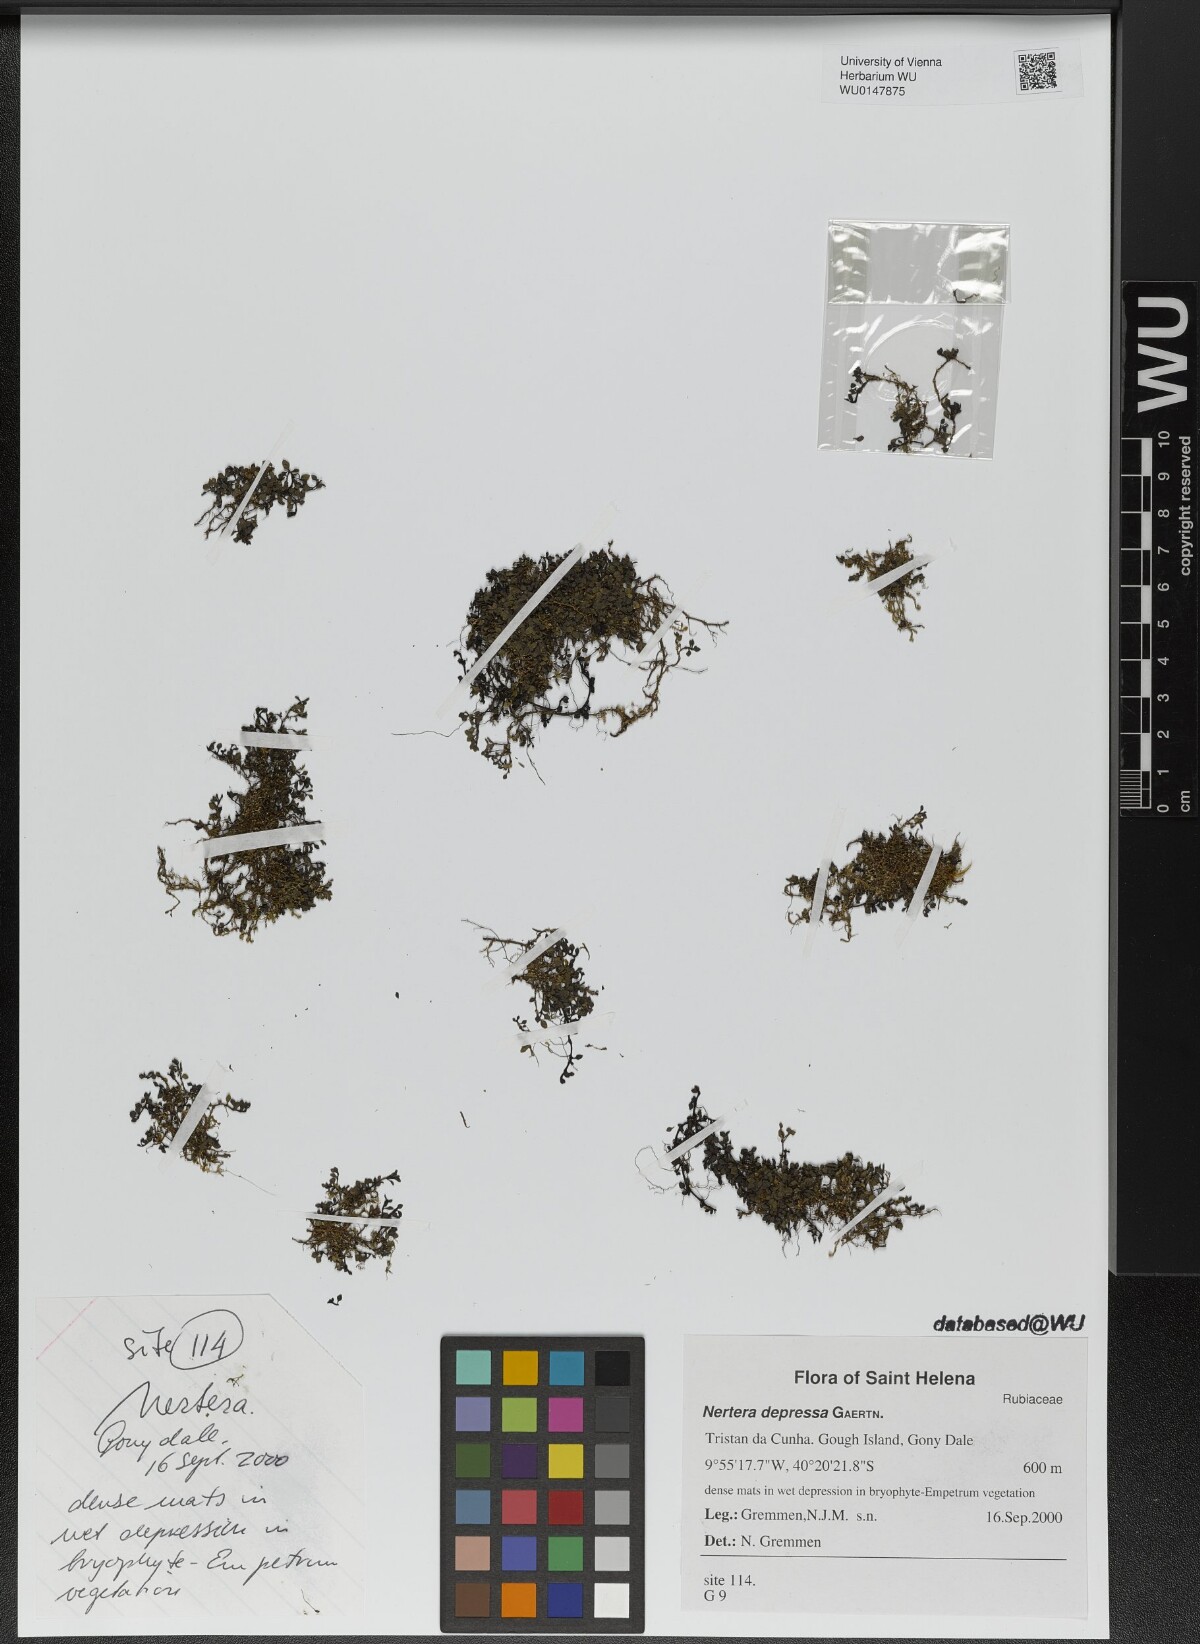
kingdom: Plantae
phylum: Tracheophyta
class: Magnoliopsida
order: Gentianales
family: Rubiaceae
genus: Nertera
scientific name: Nertera granadensis
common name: Beadplant
